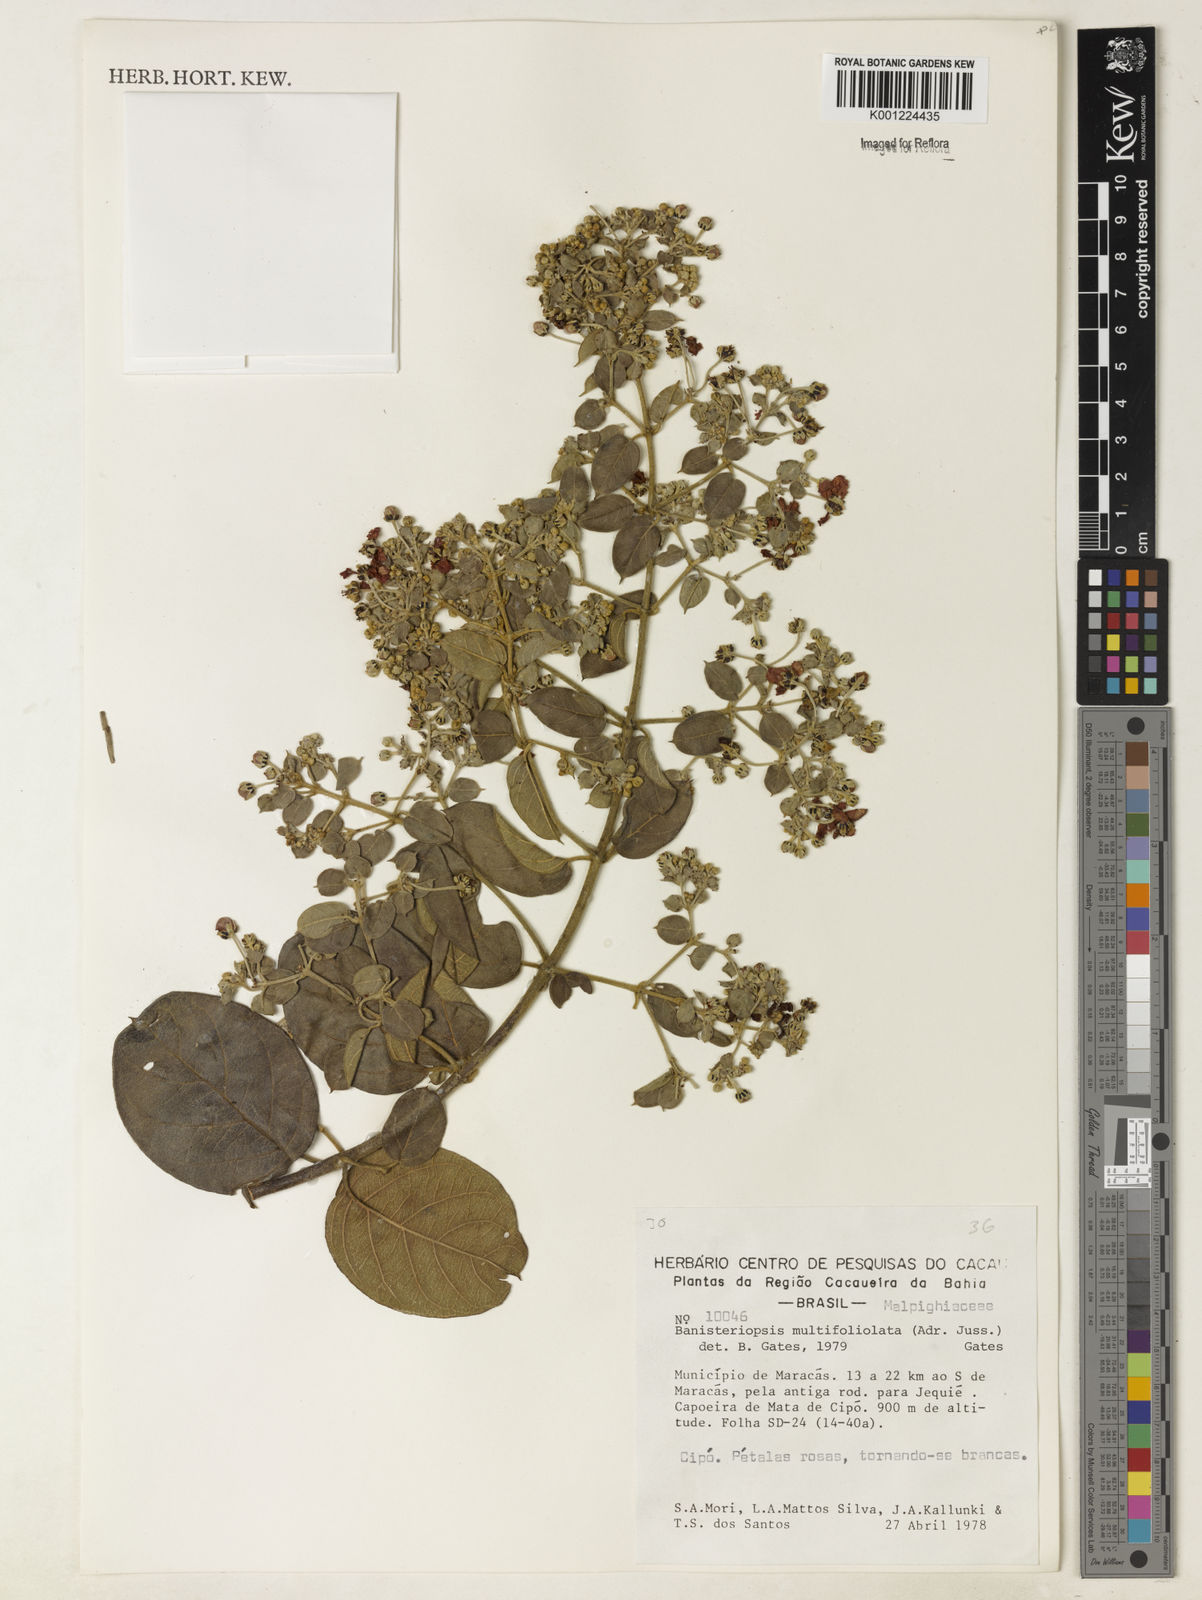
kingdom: Plantae
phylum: Tracheophyta
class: Magnoliopsida
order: Malpighiales
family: Malpighiaceae
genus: Banisteriopsis
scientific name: Banisteriopsis multifoliolata
